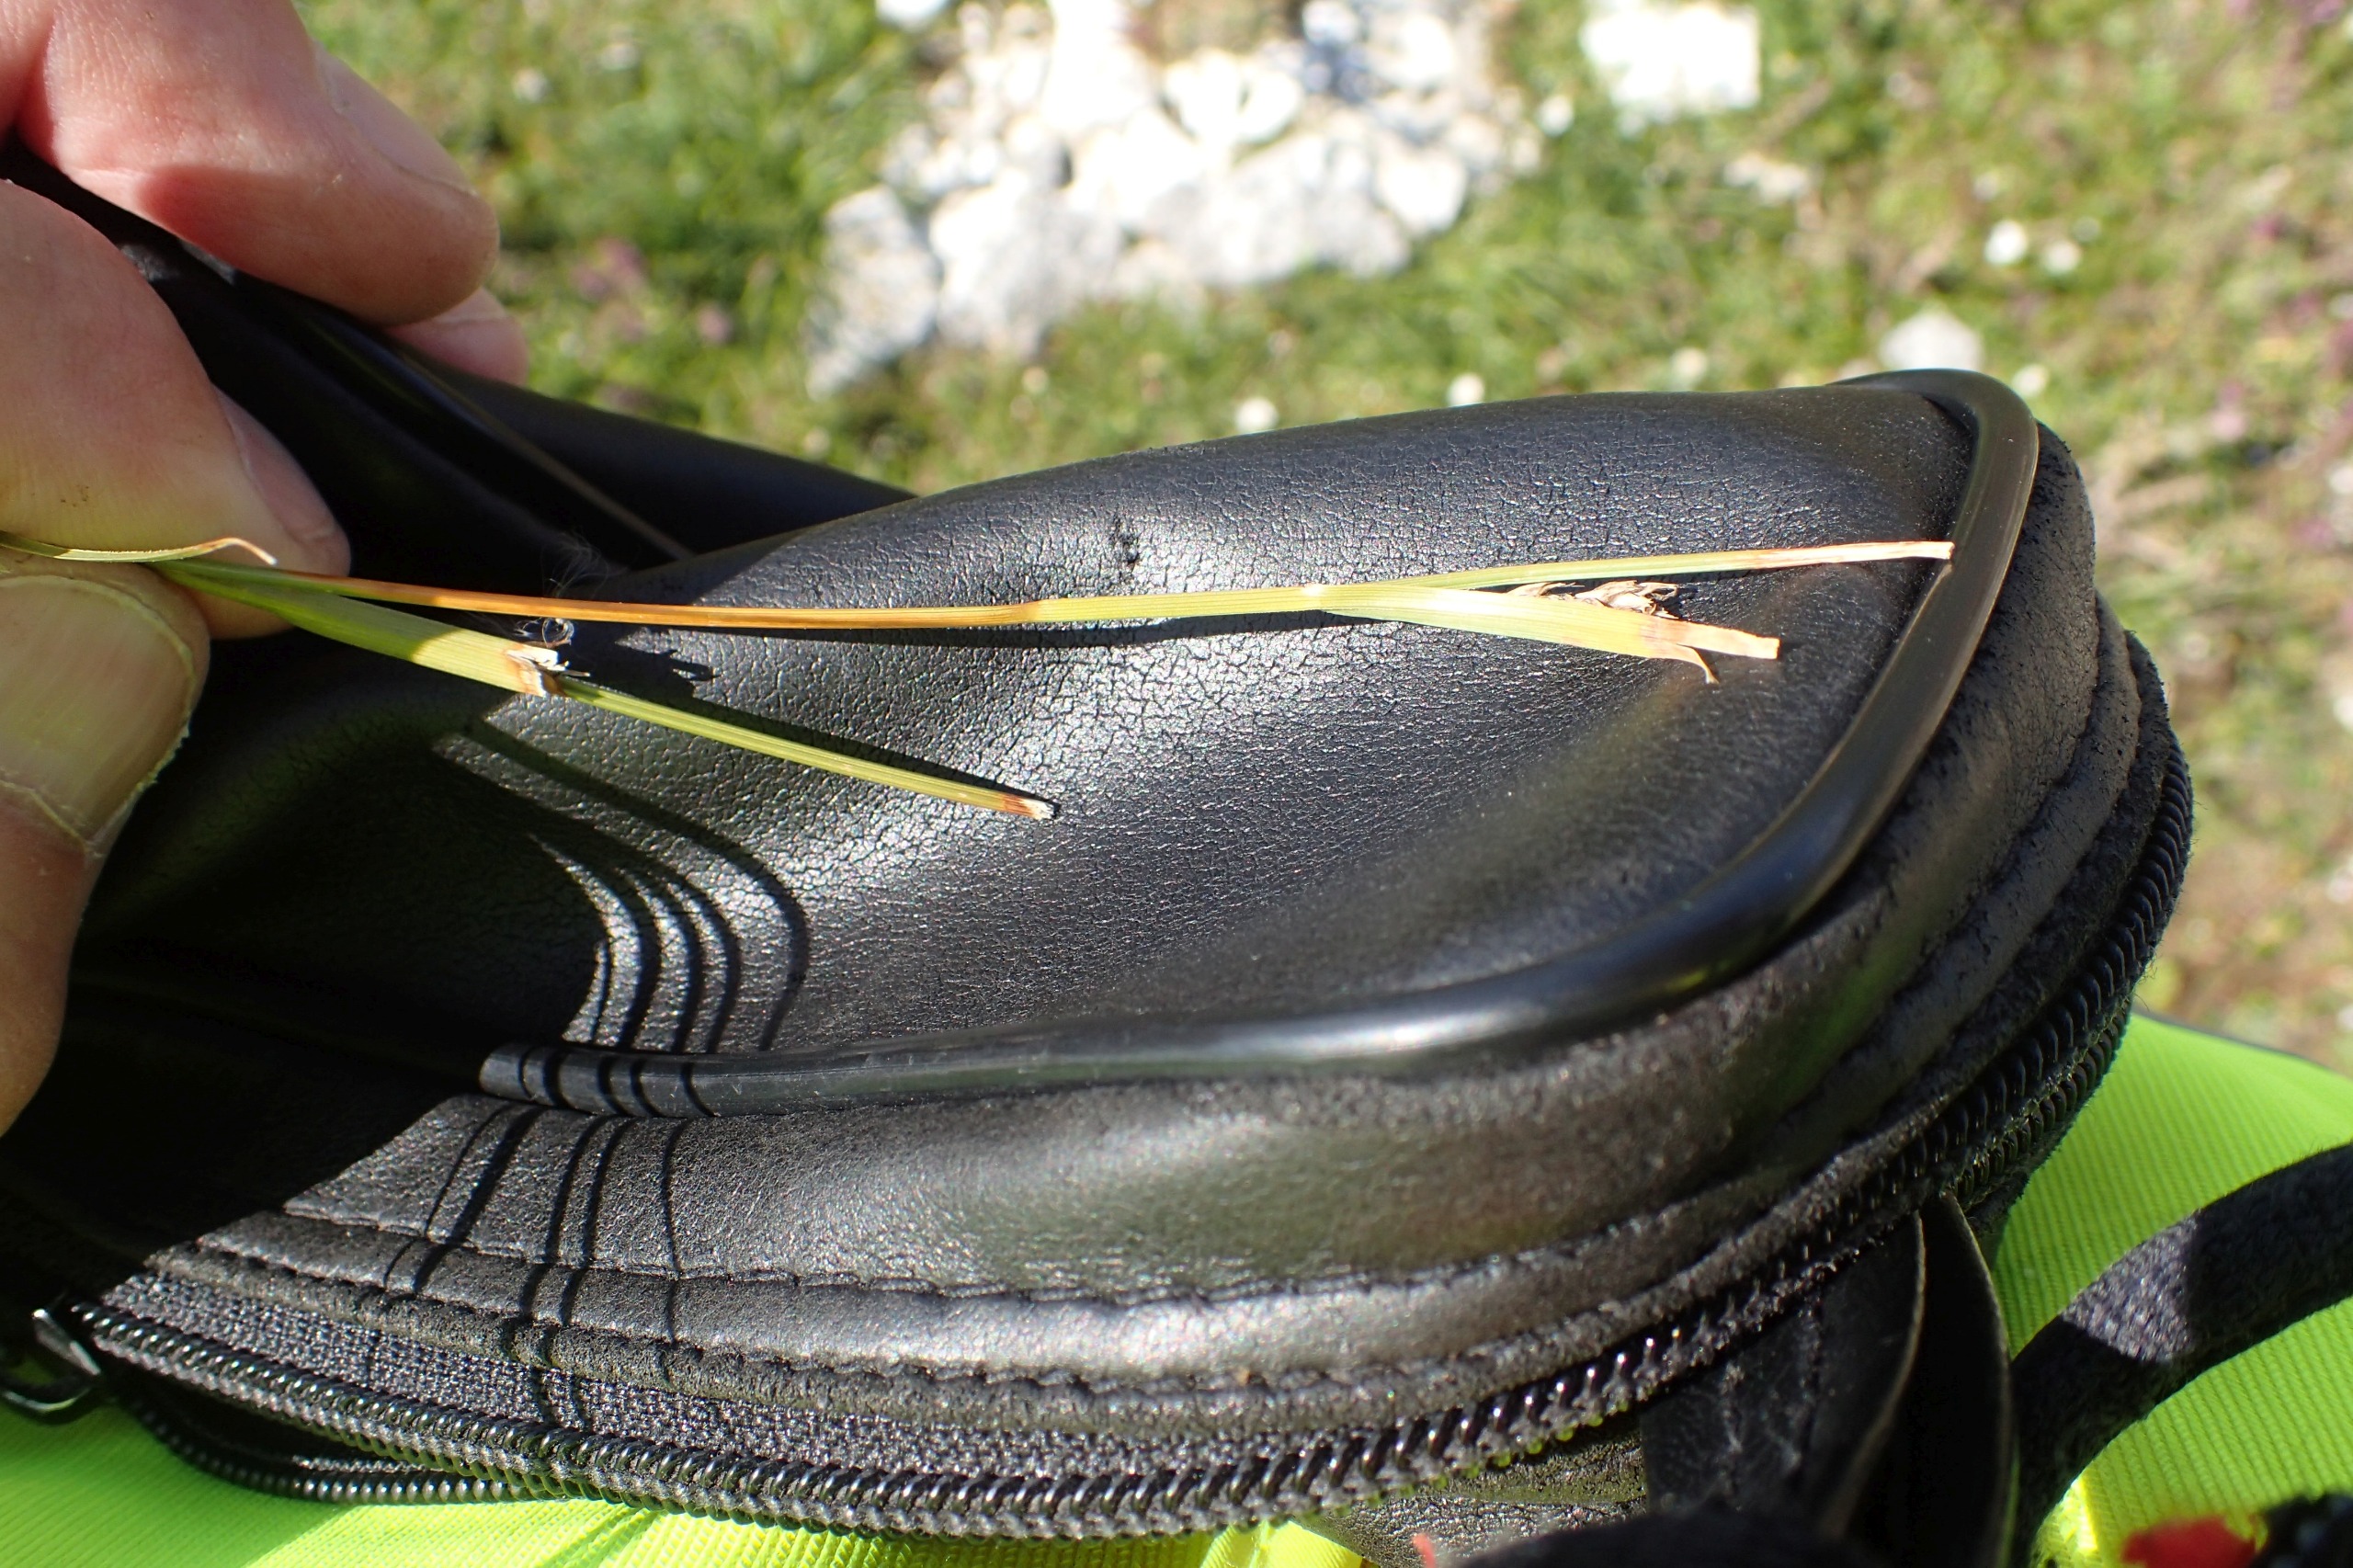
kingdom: Plantae
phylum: Tracheophyta
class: Liliopsida
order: Poales
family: Cyperaceae
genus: Carex
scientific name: Carex distans
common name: Fjernakset star
